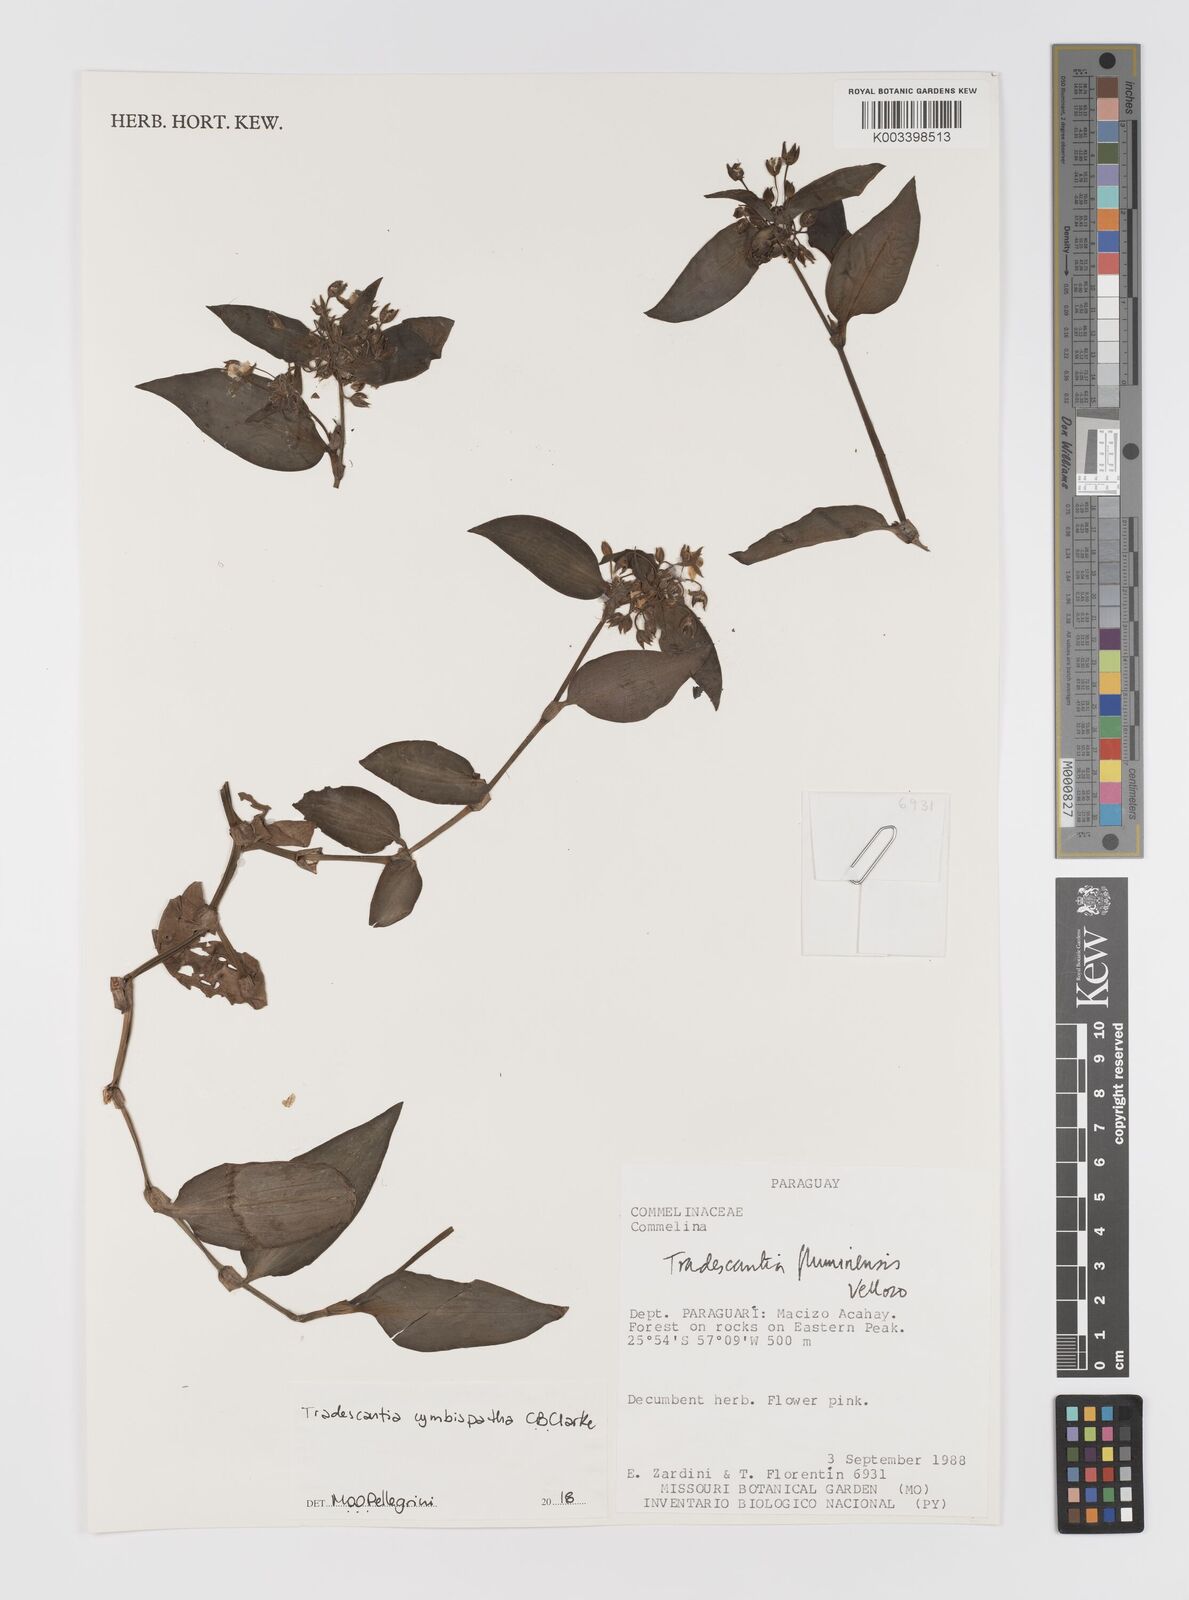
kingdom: Plantae
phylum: Tracheophyta
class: Liliopsida
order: Commelinales
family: Commelinaceae
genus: Tradescantia
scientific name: Tradescantia cymbispatha
